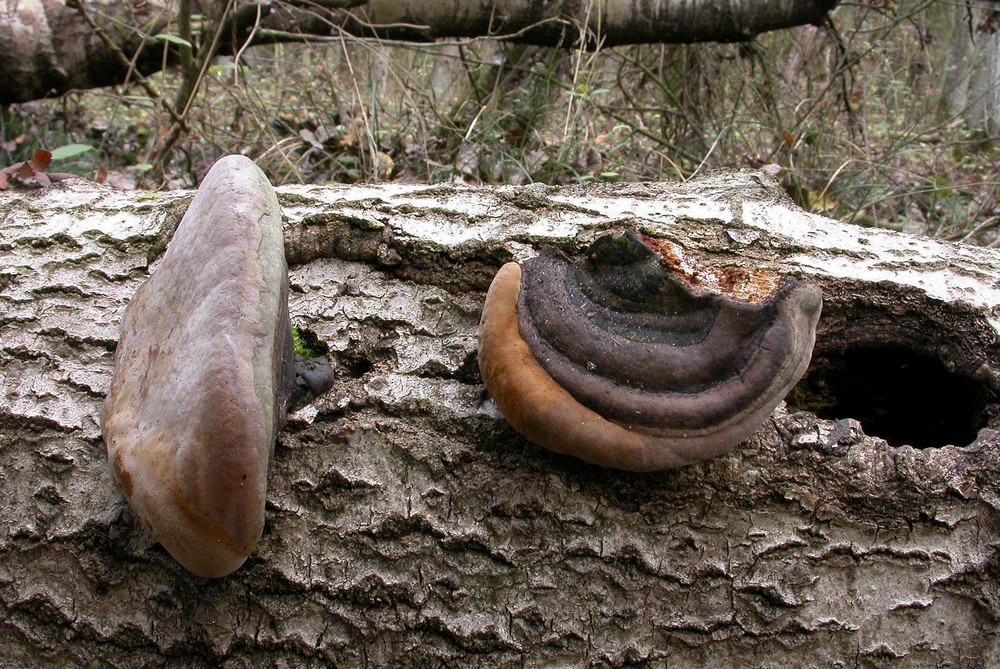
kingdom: Fungi
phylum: Basidiomycota
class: Agaricomycetes
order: Hymenochaetales
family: Hymenochaetaceae
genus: Phellinus
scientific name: Phellinus populicola
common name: poppel-ildporesvamp
